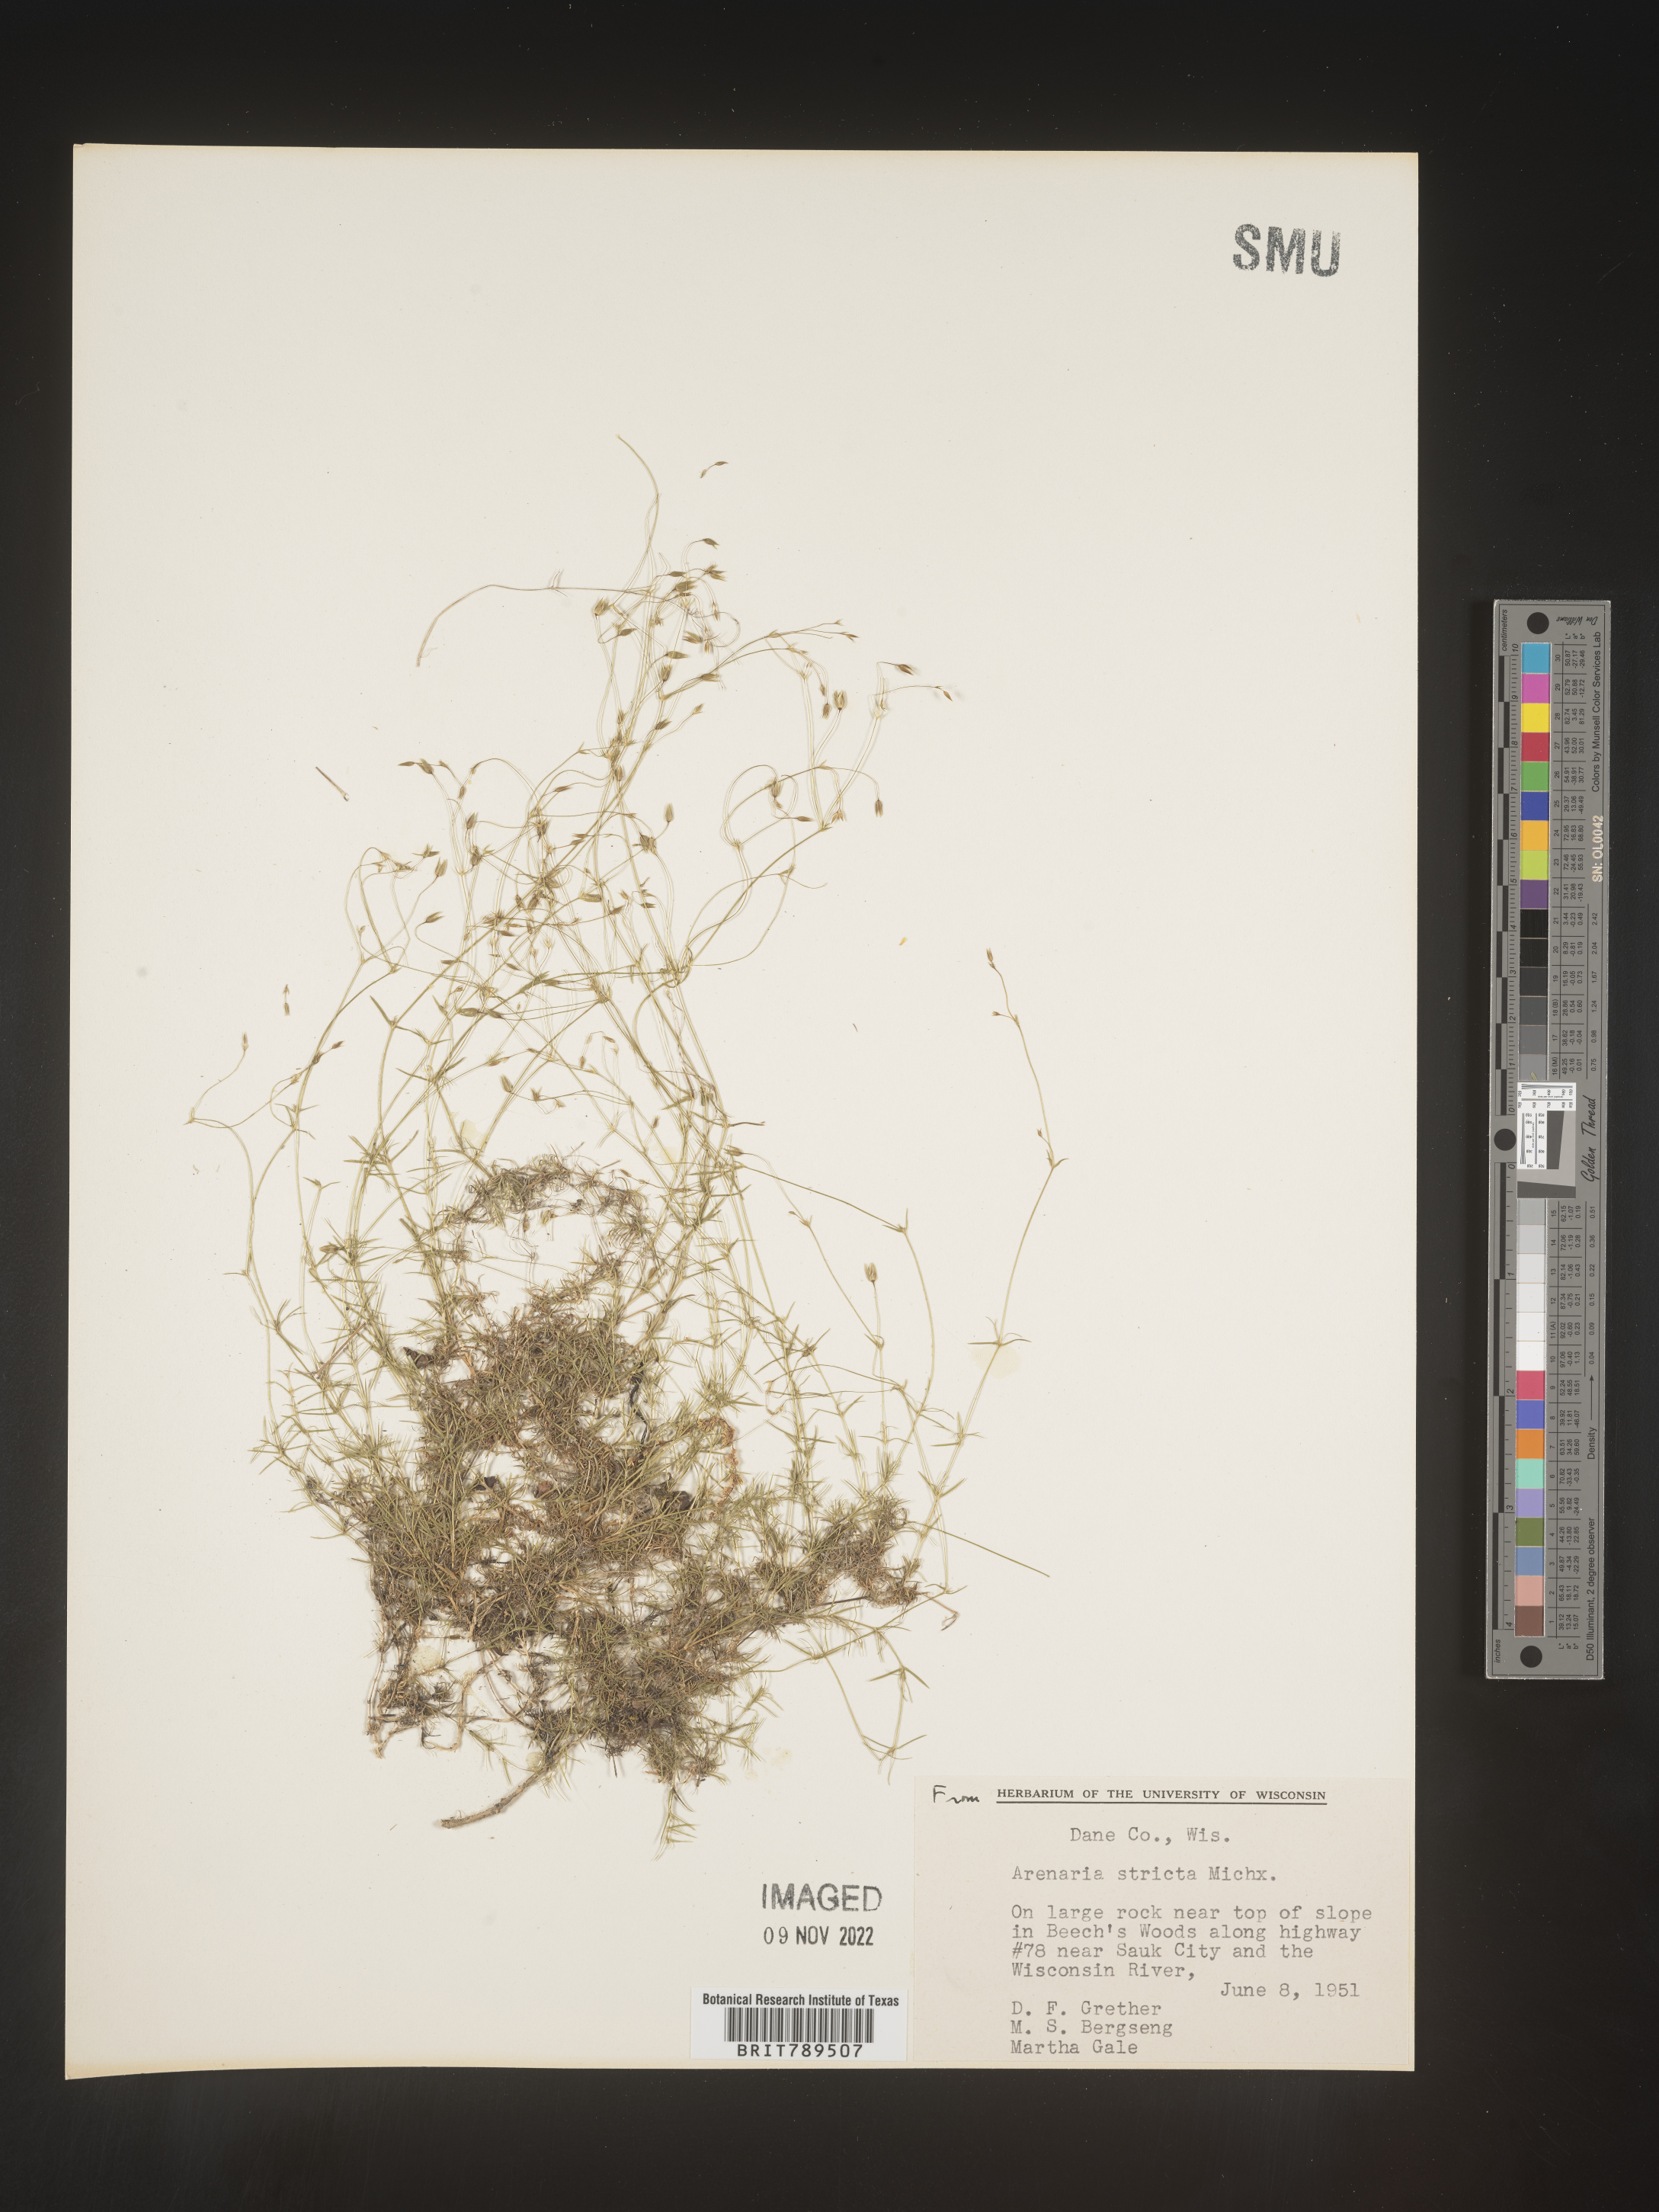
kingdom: Plantae
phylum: Tracheophyta
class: Magnoliopsida
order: Caryophyllales
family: Caryophyllaceae
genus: Sabulina
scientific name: Sabulina michauxii
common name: Michaux's stitchwort
